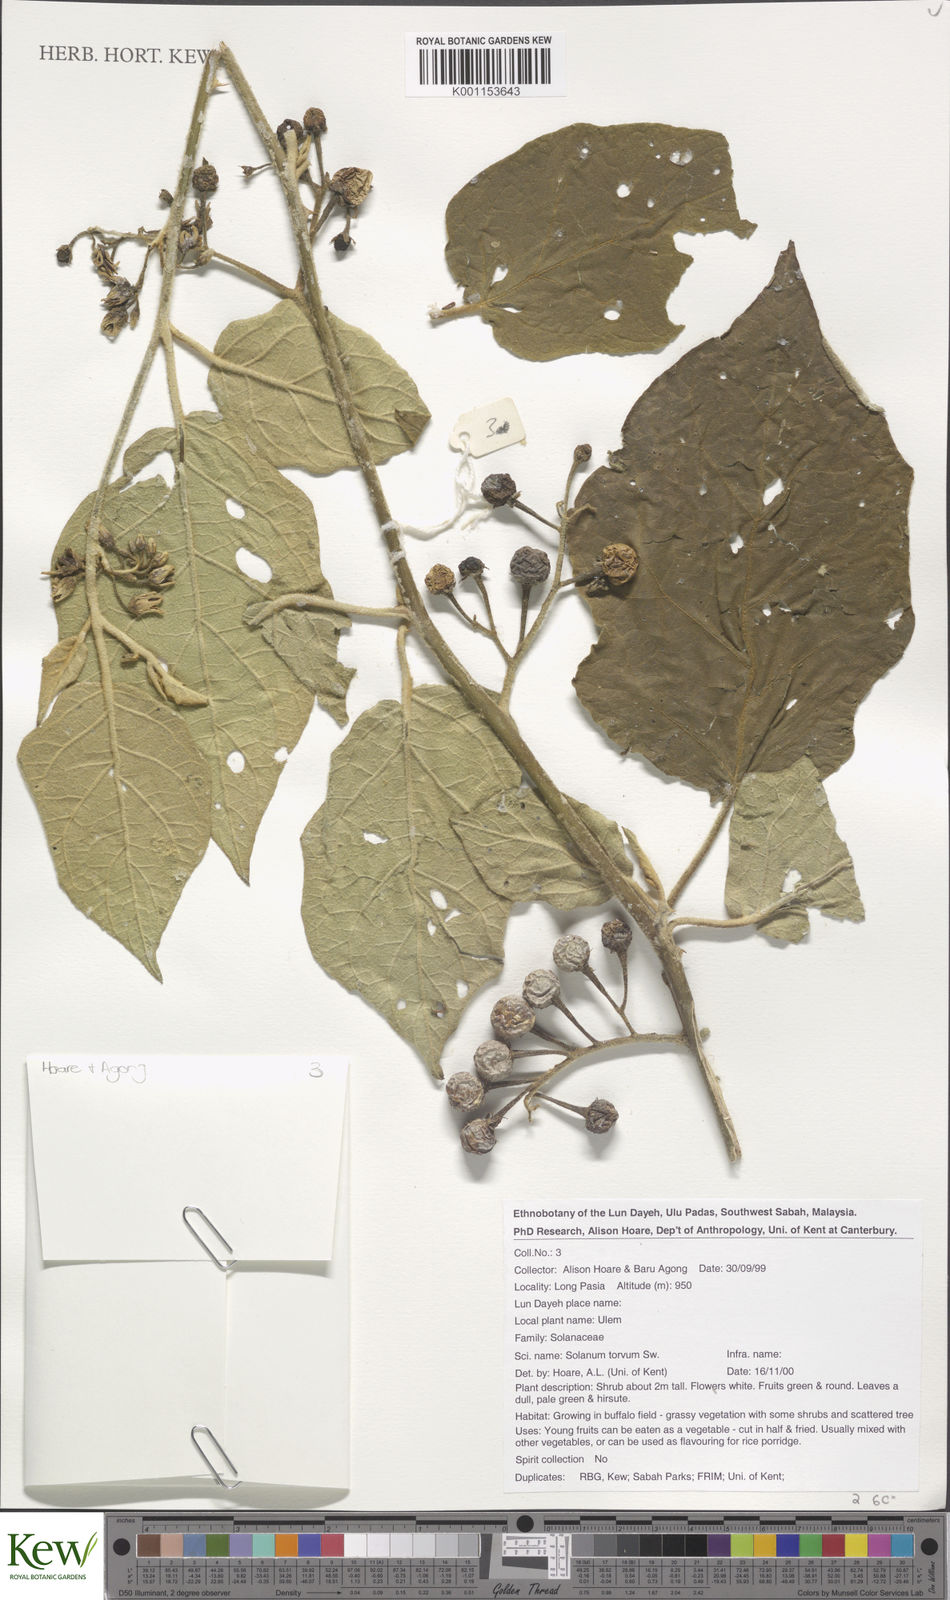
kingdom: Plantae
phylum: Tracheophyta
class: Magnoliopsida
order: Solanales
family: Solanaceae
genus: Solanum
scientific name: Solanum torvum
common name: Turkey berry
